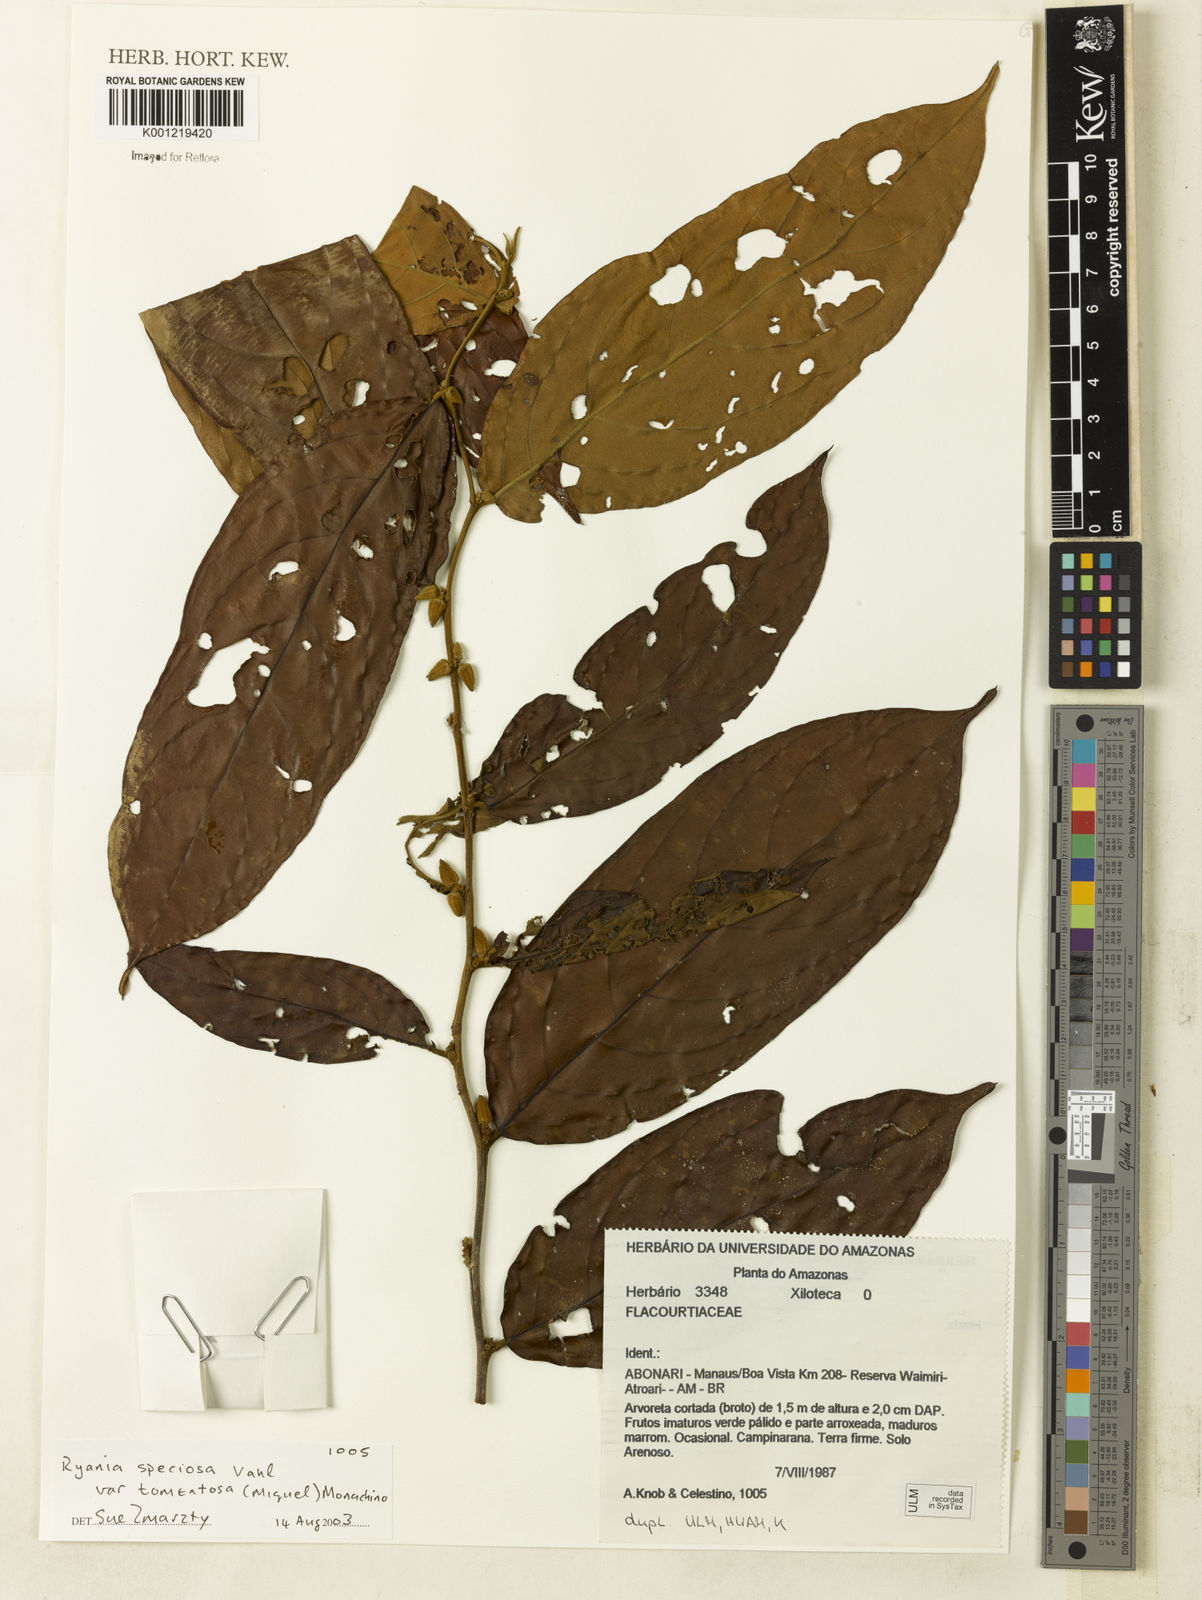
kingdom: Plantae
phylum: Tracheophyta
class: Magnoliopsida
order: Malpighiales
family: Salicaceae
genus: Ryania
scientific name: Ryania speciosa
